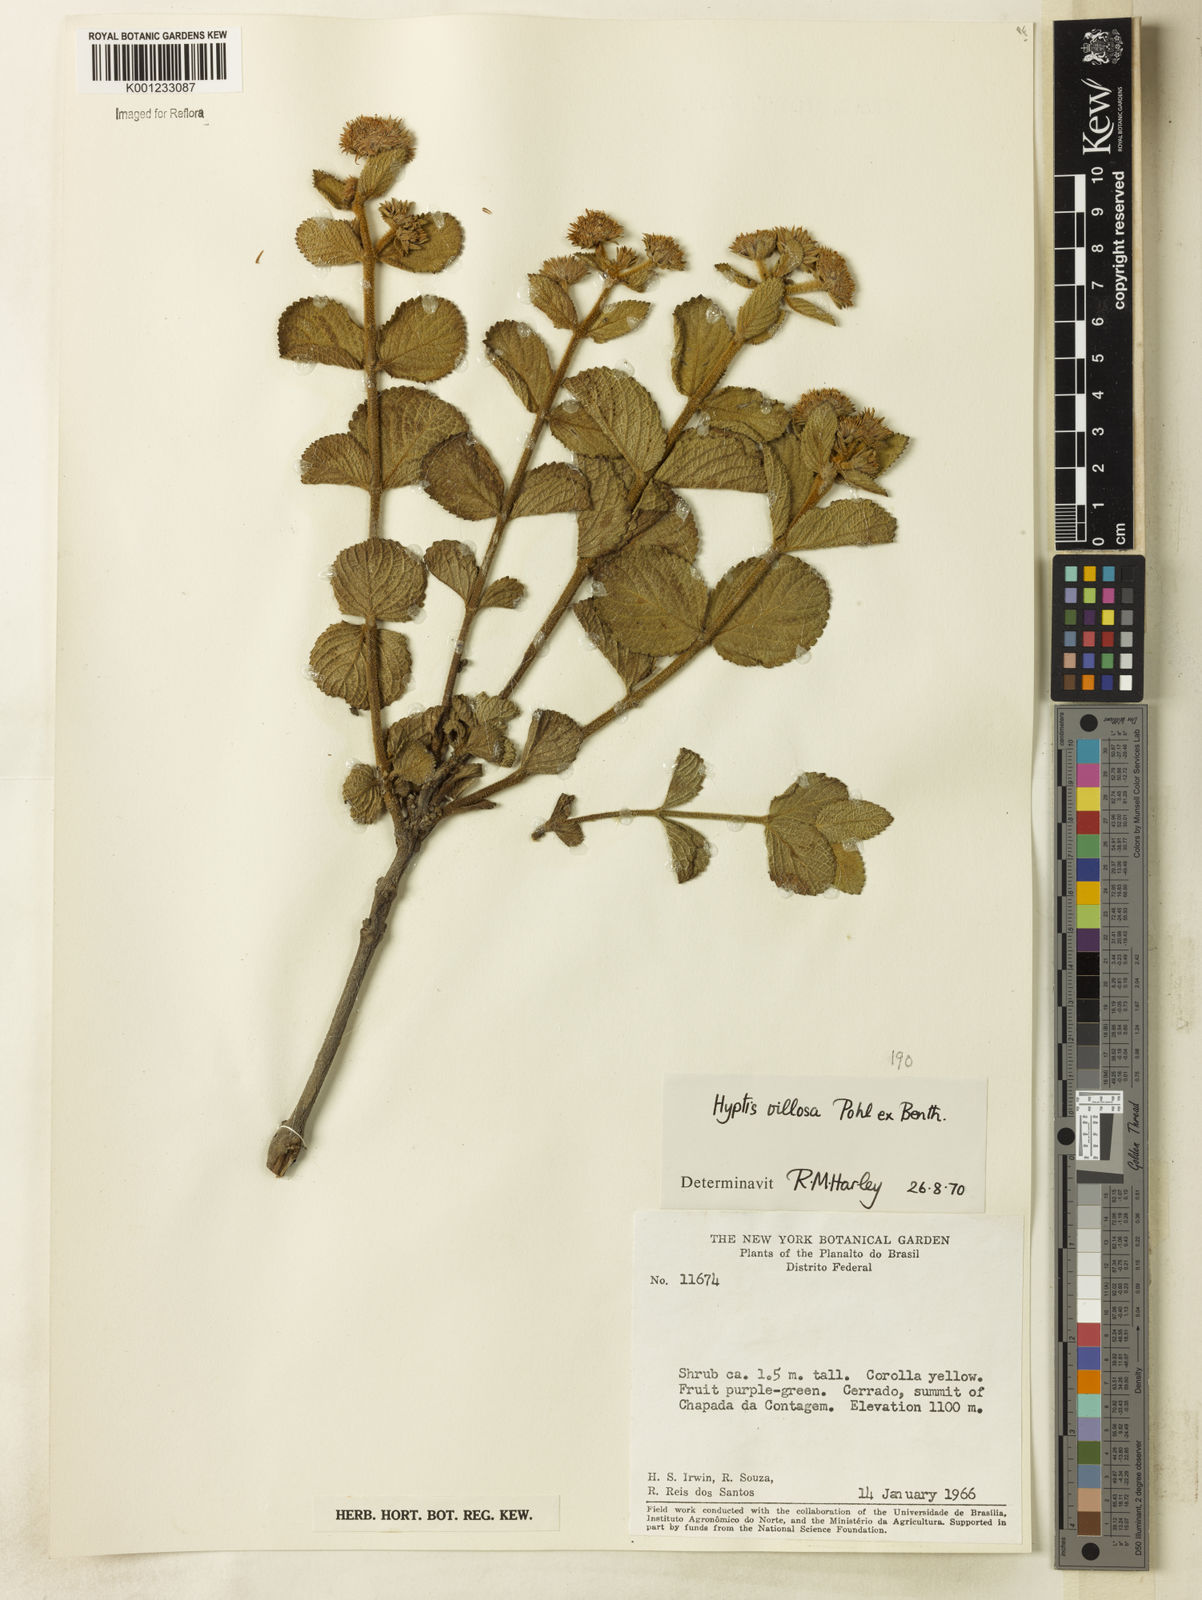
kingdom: Plantae
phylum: Tracheophyta
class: Magnoliopsida
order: Lamiales
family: Lamiaceae
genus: Hyptis
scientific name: Hyptis villosa
